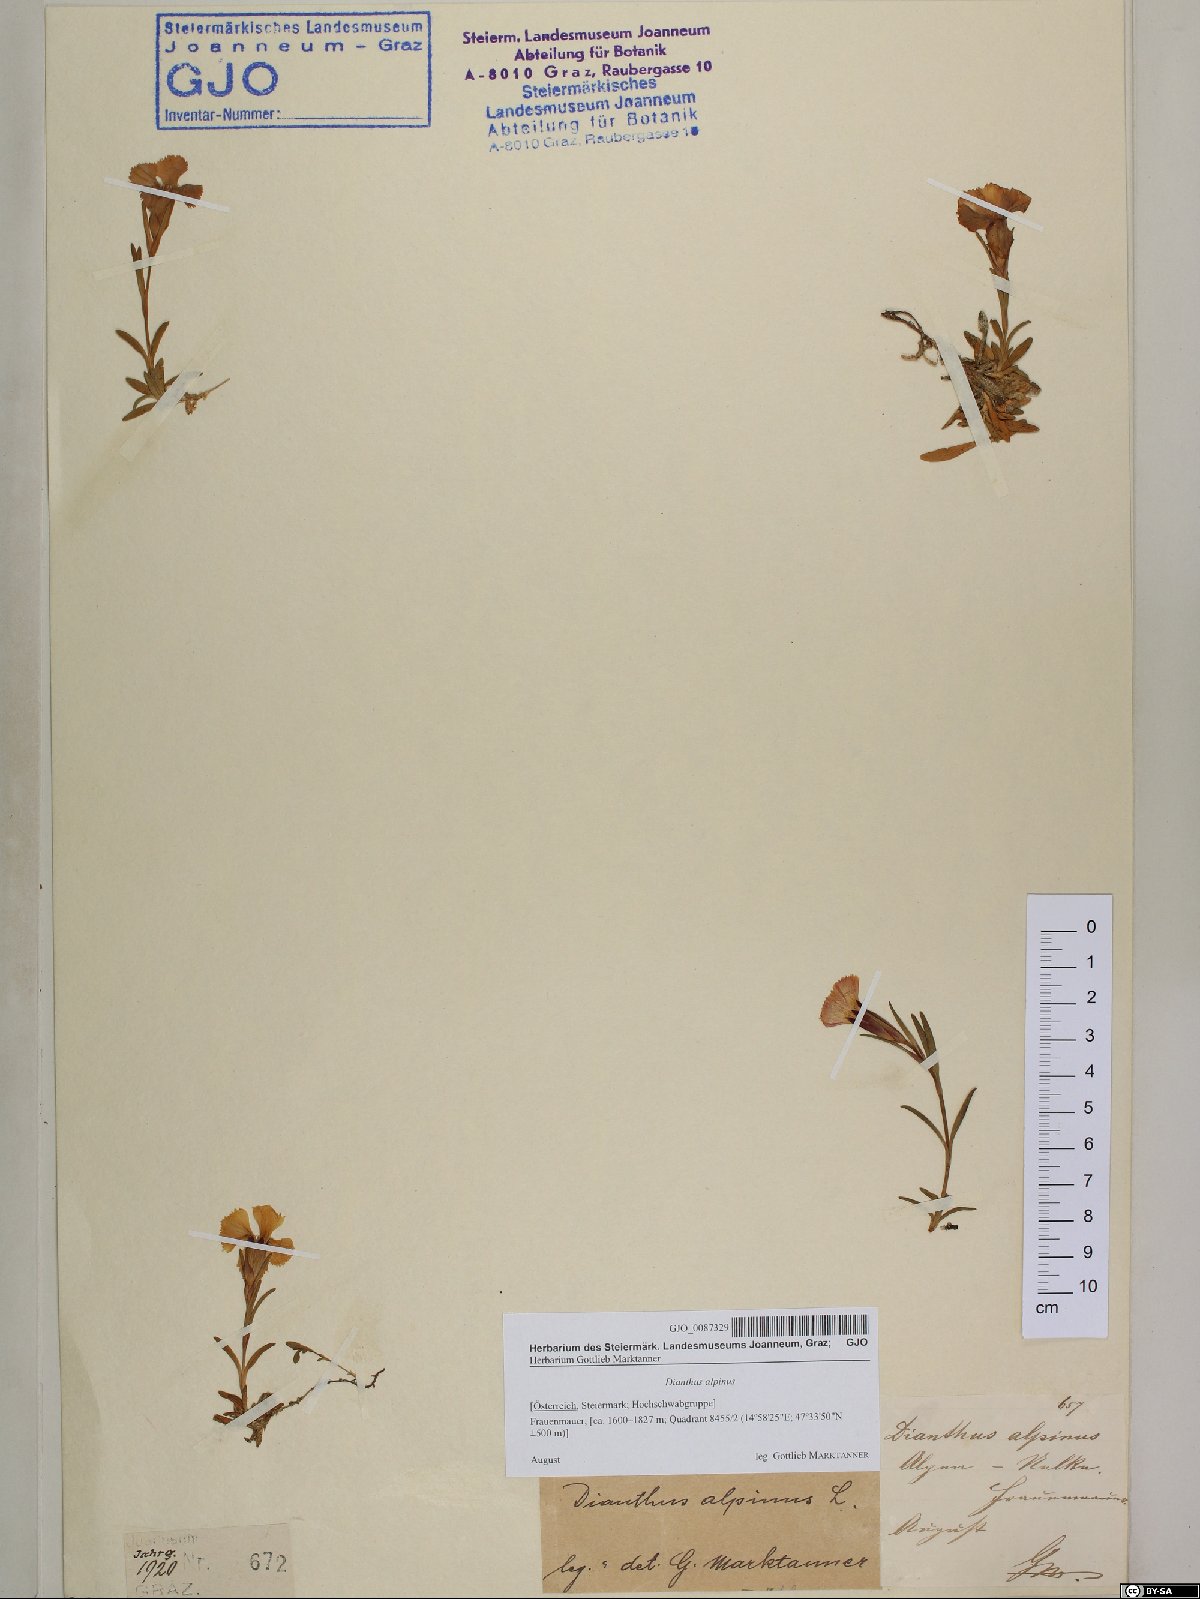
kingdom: Plantae
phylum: Tracheophyta
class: Magnoliopsida
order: Caryophyllales
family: Caryophyllaceae
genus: Dianthus
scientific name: Dianthus alpinus
